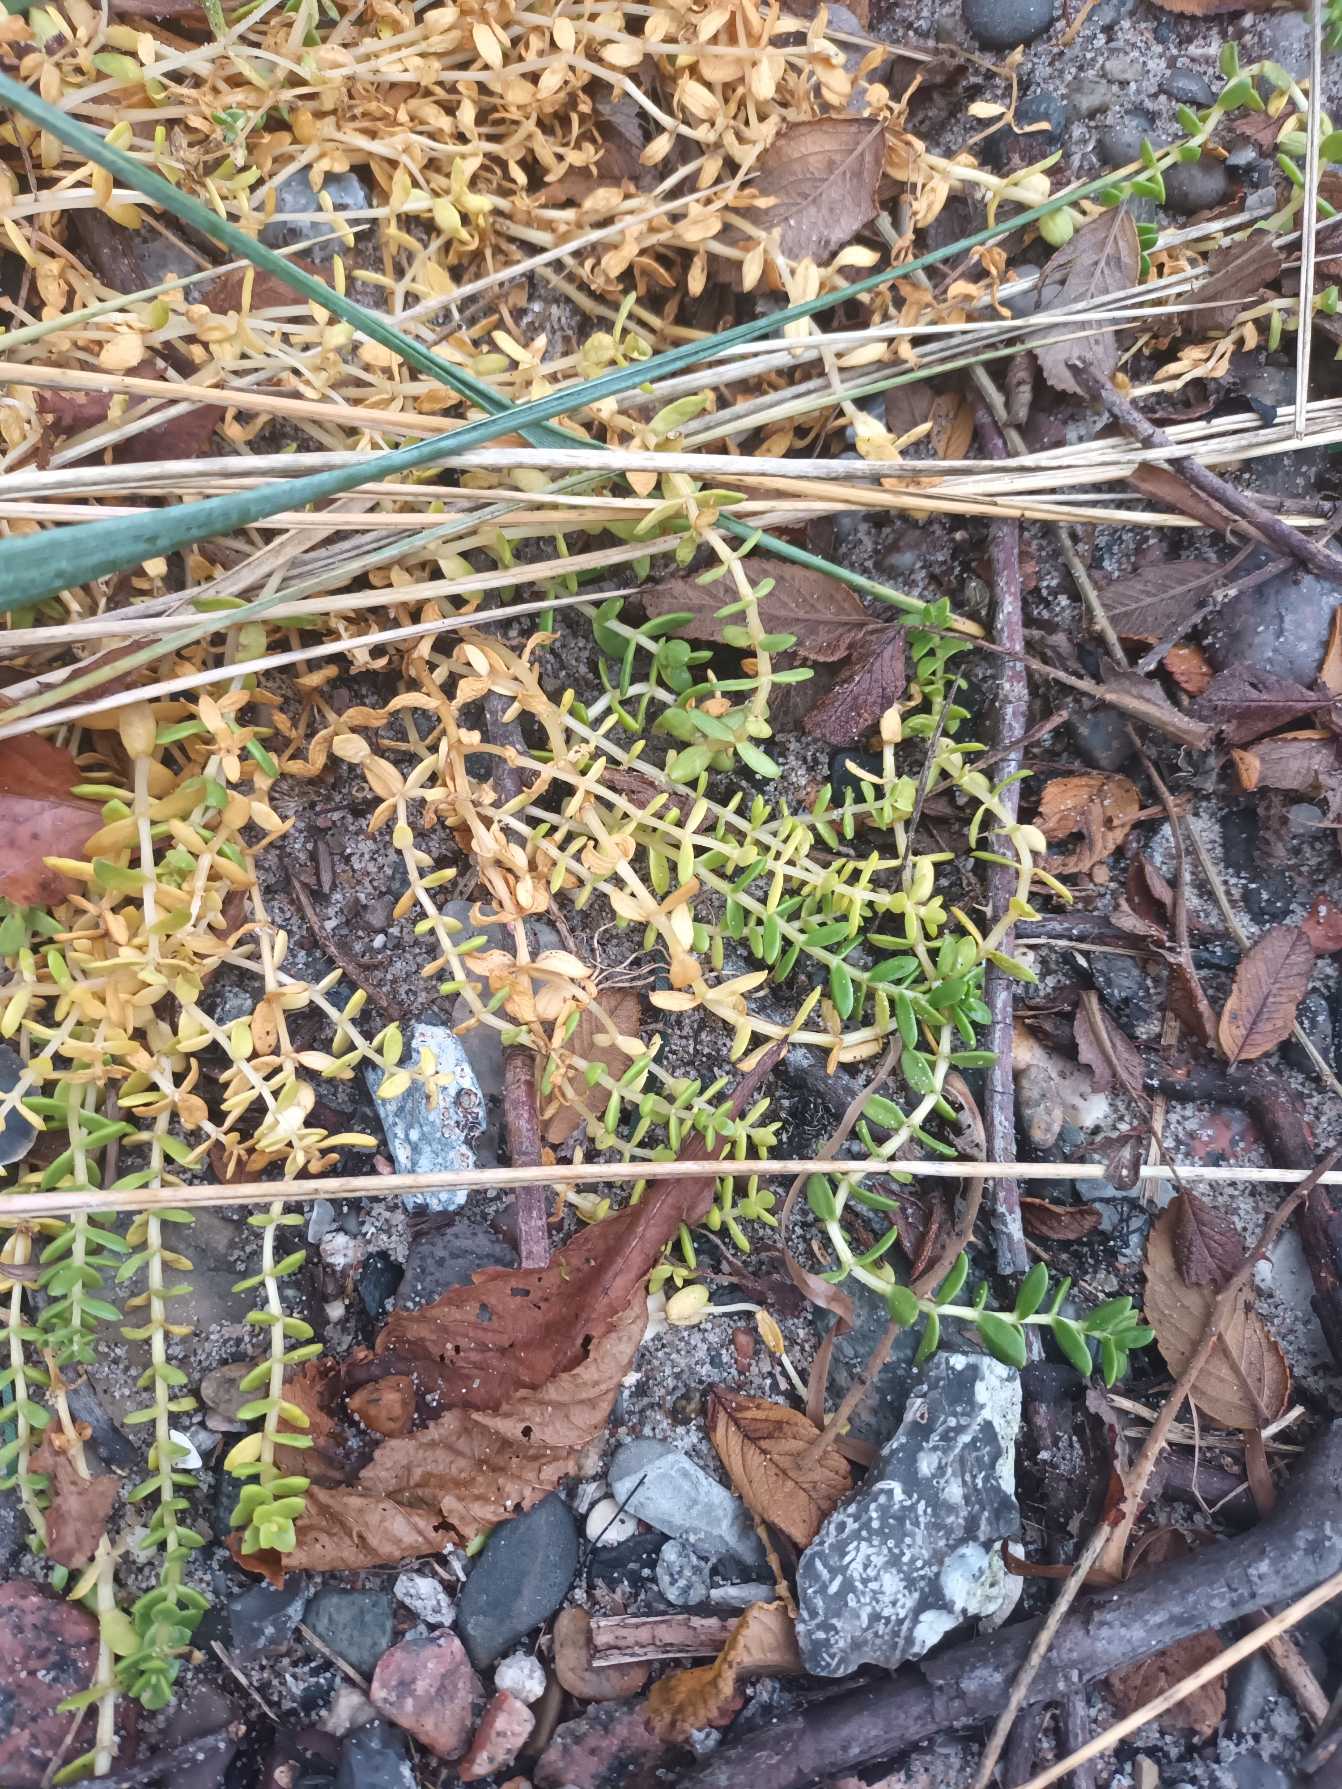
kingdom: Plantae
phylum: Tracheophyta
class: Magnoliopsida
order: Caryophyllales
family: Caryophyllaceae
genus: Honckenya
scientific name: Honckenya peploides
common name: Strandarve
